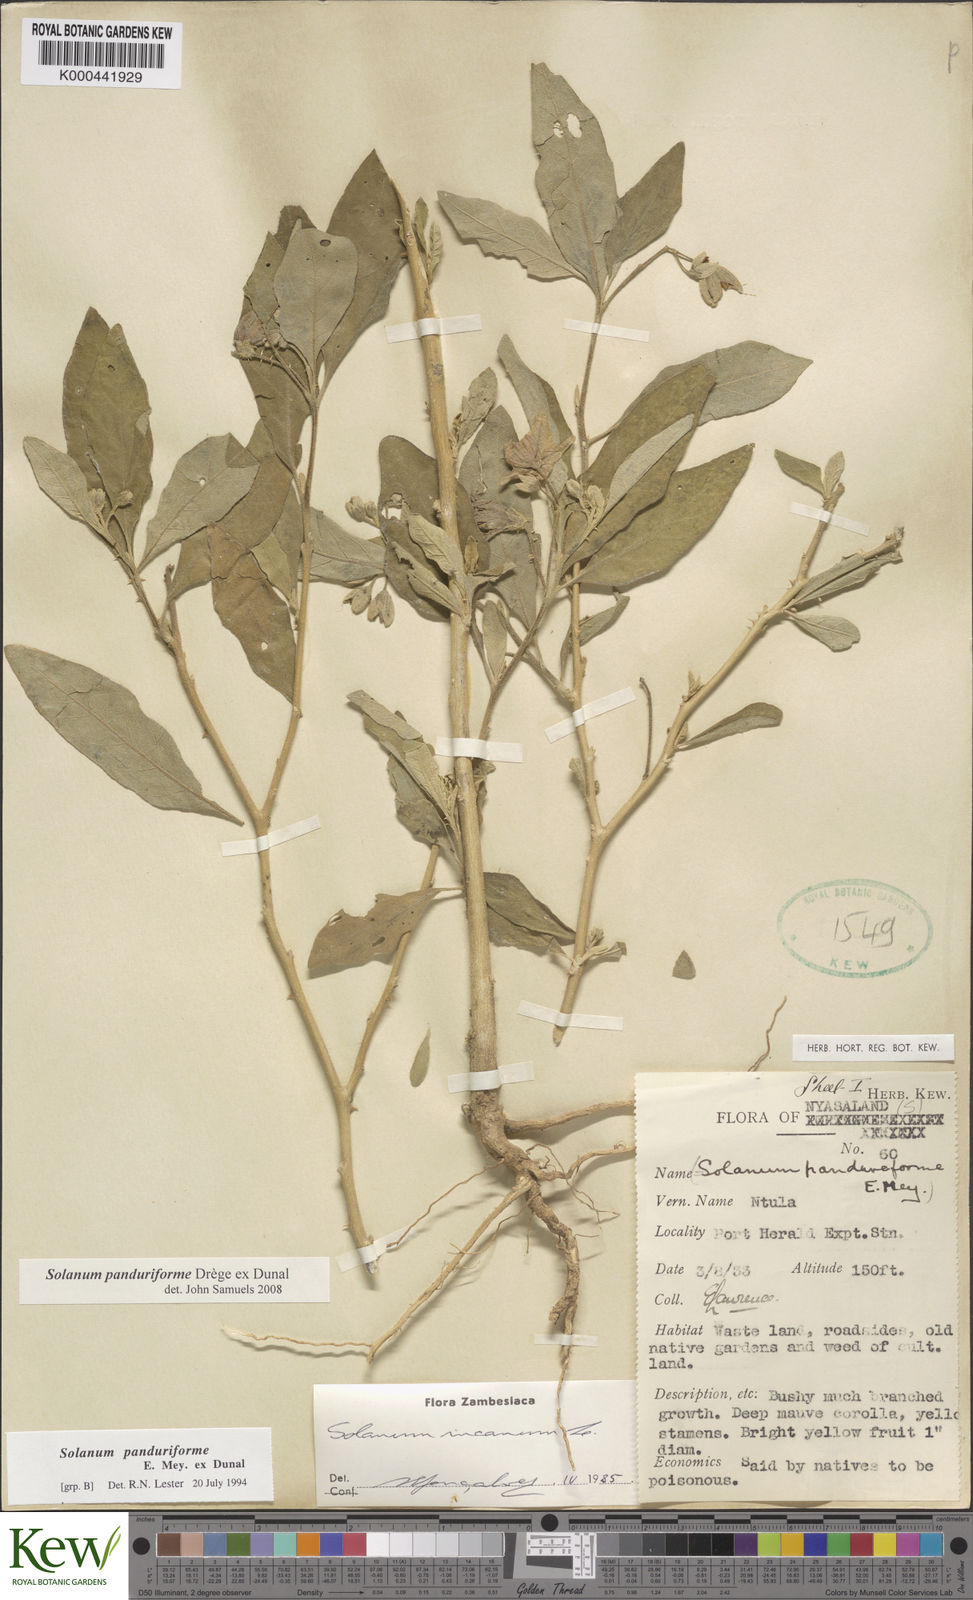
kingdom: Plantae
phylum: Tracheophyta
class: Magnoliopsida
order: Solanales
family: Solanaceae
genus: Solanum
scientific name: Solanum campylacanthum
